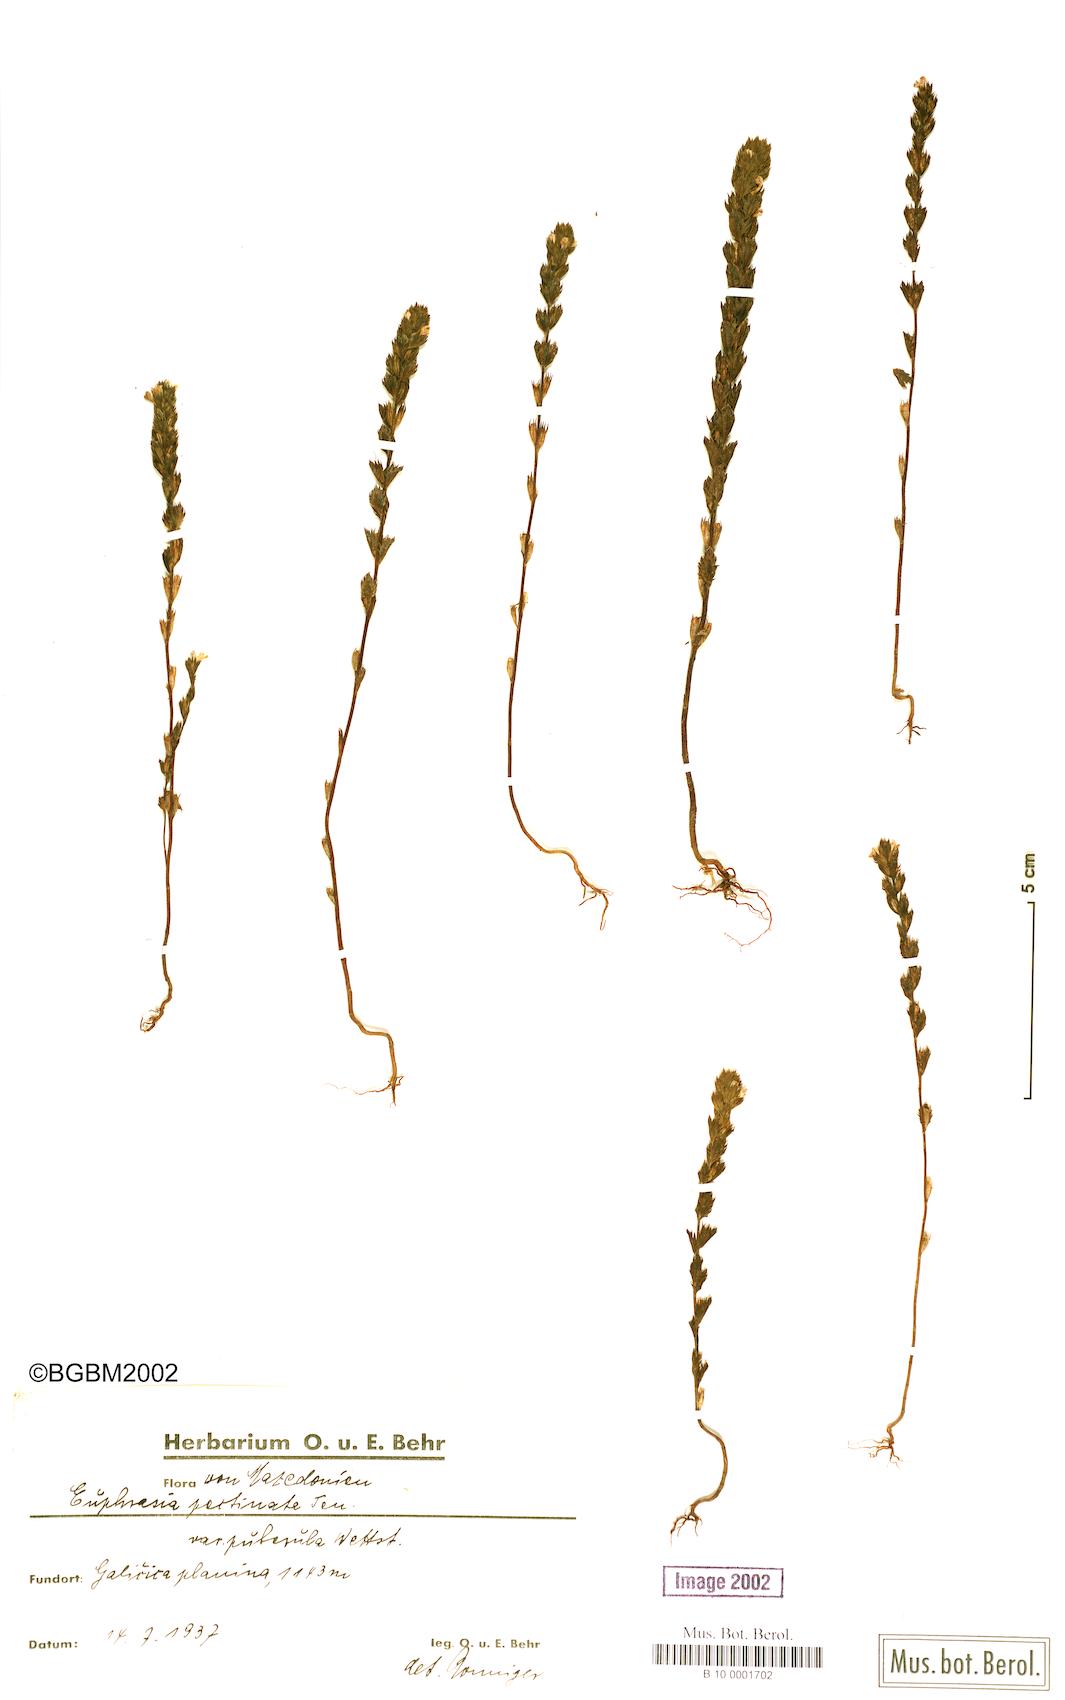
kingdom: Plantae
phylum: Tracheophyta
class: Magnoliopsida
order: Lamiales
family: Orobanchaceae
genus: Euphrasia
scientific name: Euphrasia pectinata
